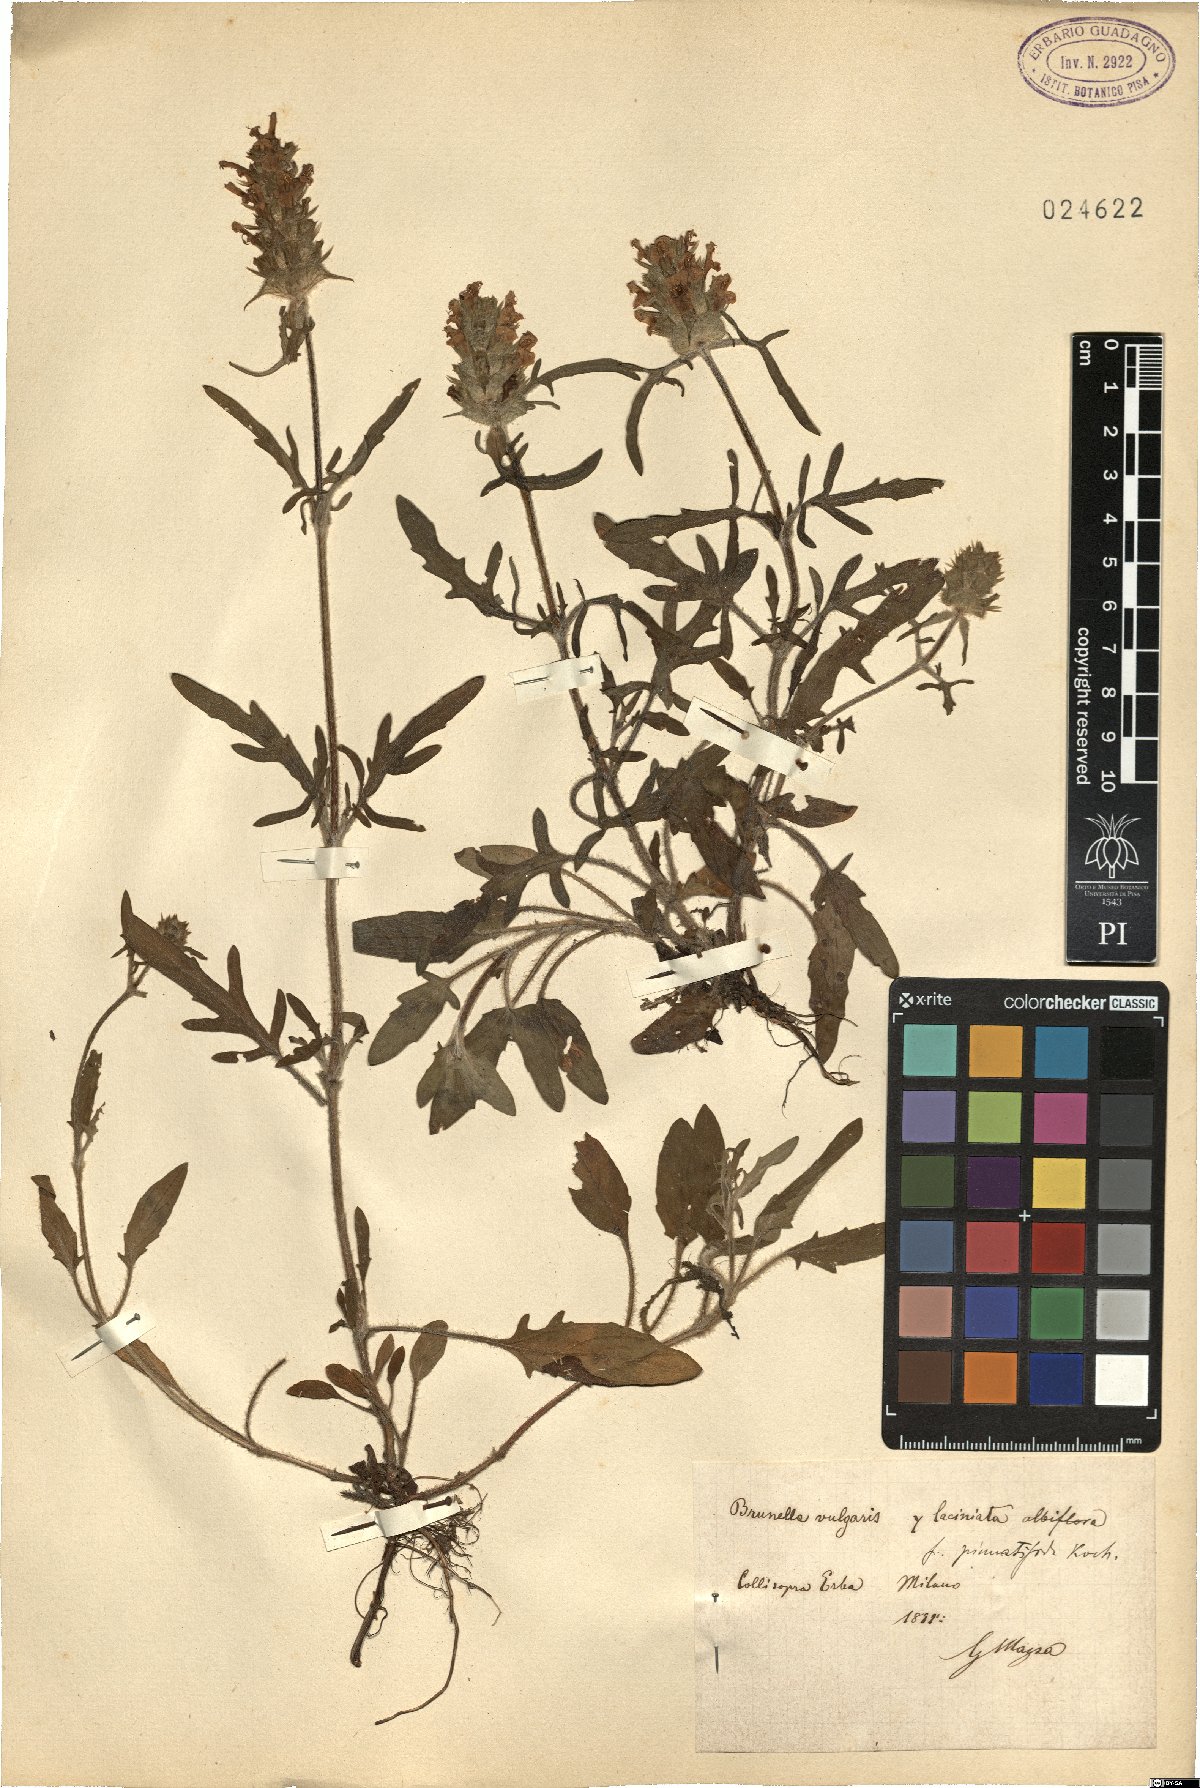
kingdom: Plantae
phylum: Tracheophyta
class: Magnoliopsida
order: Lamiales
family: Lamiaceae
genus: Prunella
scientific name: Prunella vulgaris
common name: Heal-all
